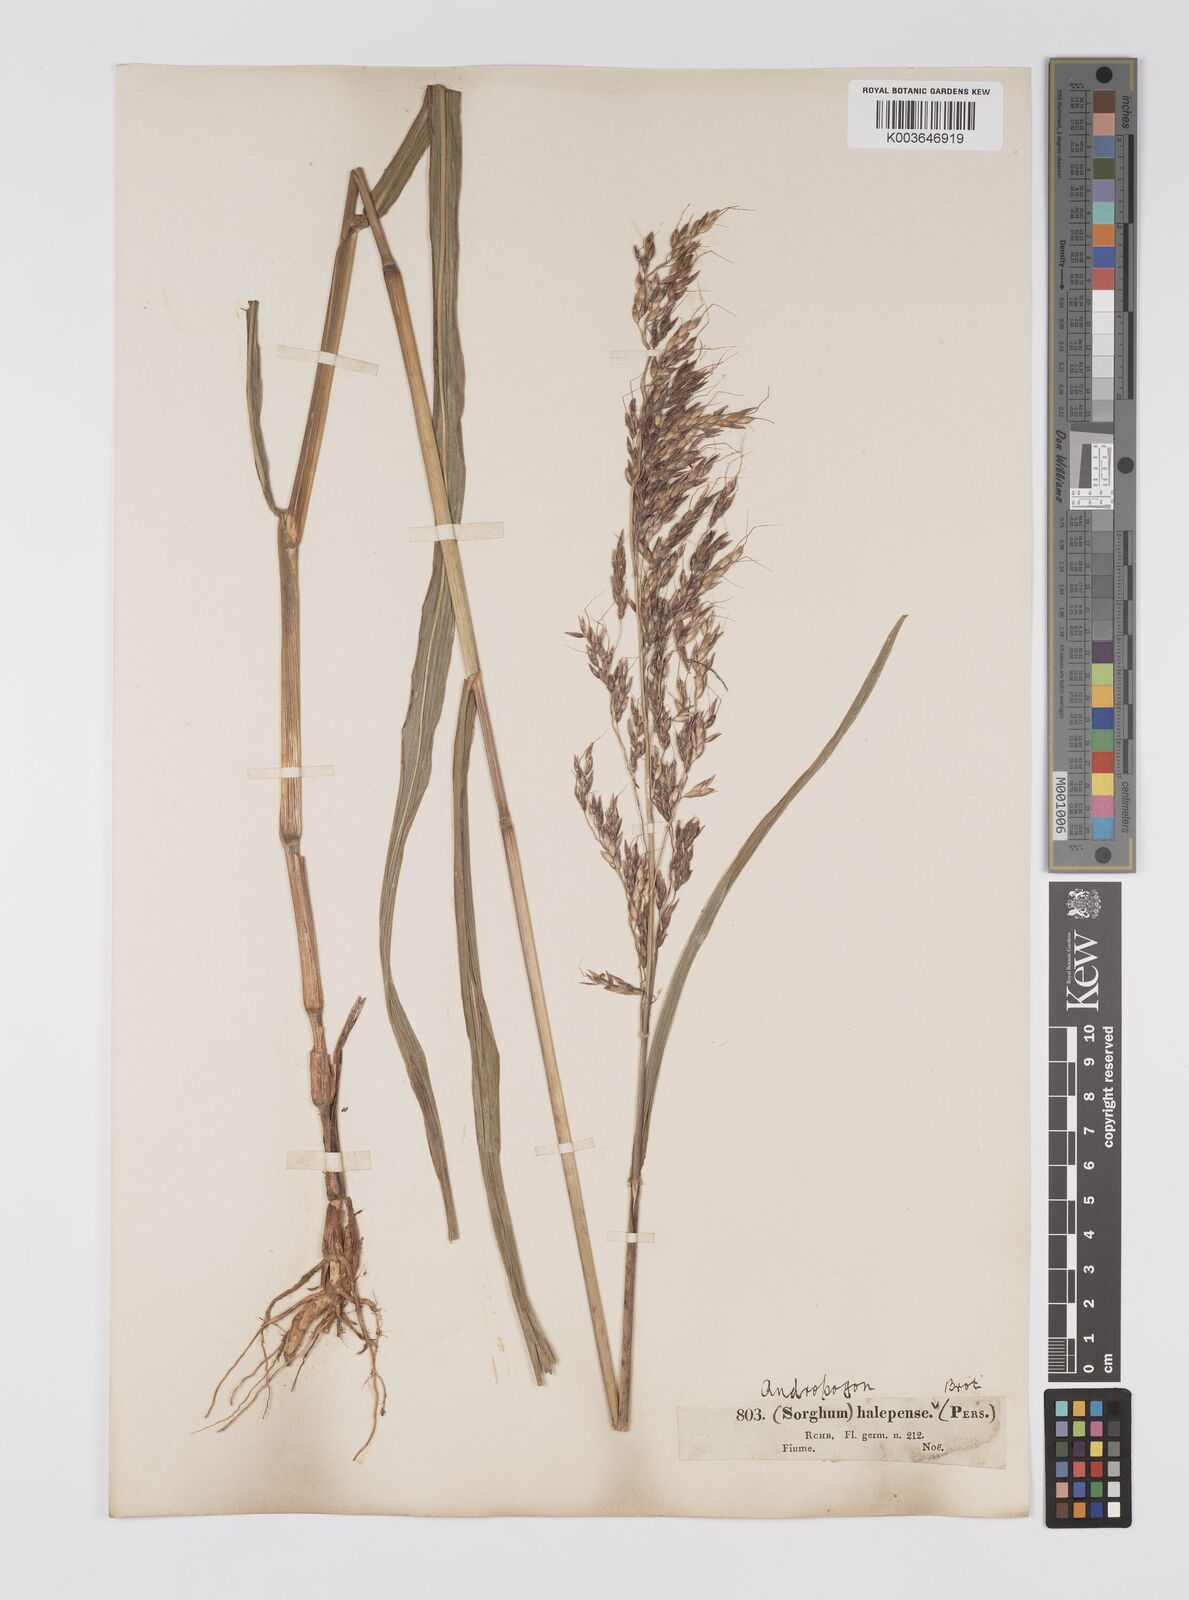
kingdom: Plantae
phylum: Tracheophyta
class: Liliopsida
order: Poales
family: Poaceae
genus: Sorghum
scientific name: Sorghum halepense
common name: Johnson-grass
